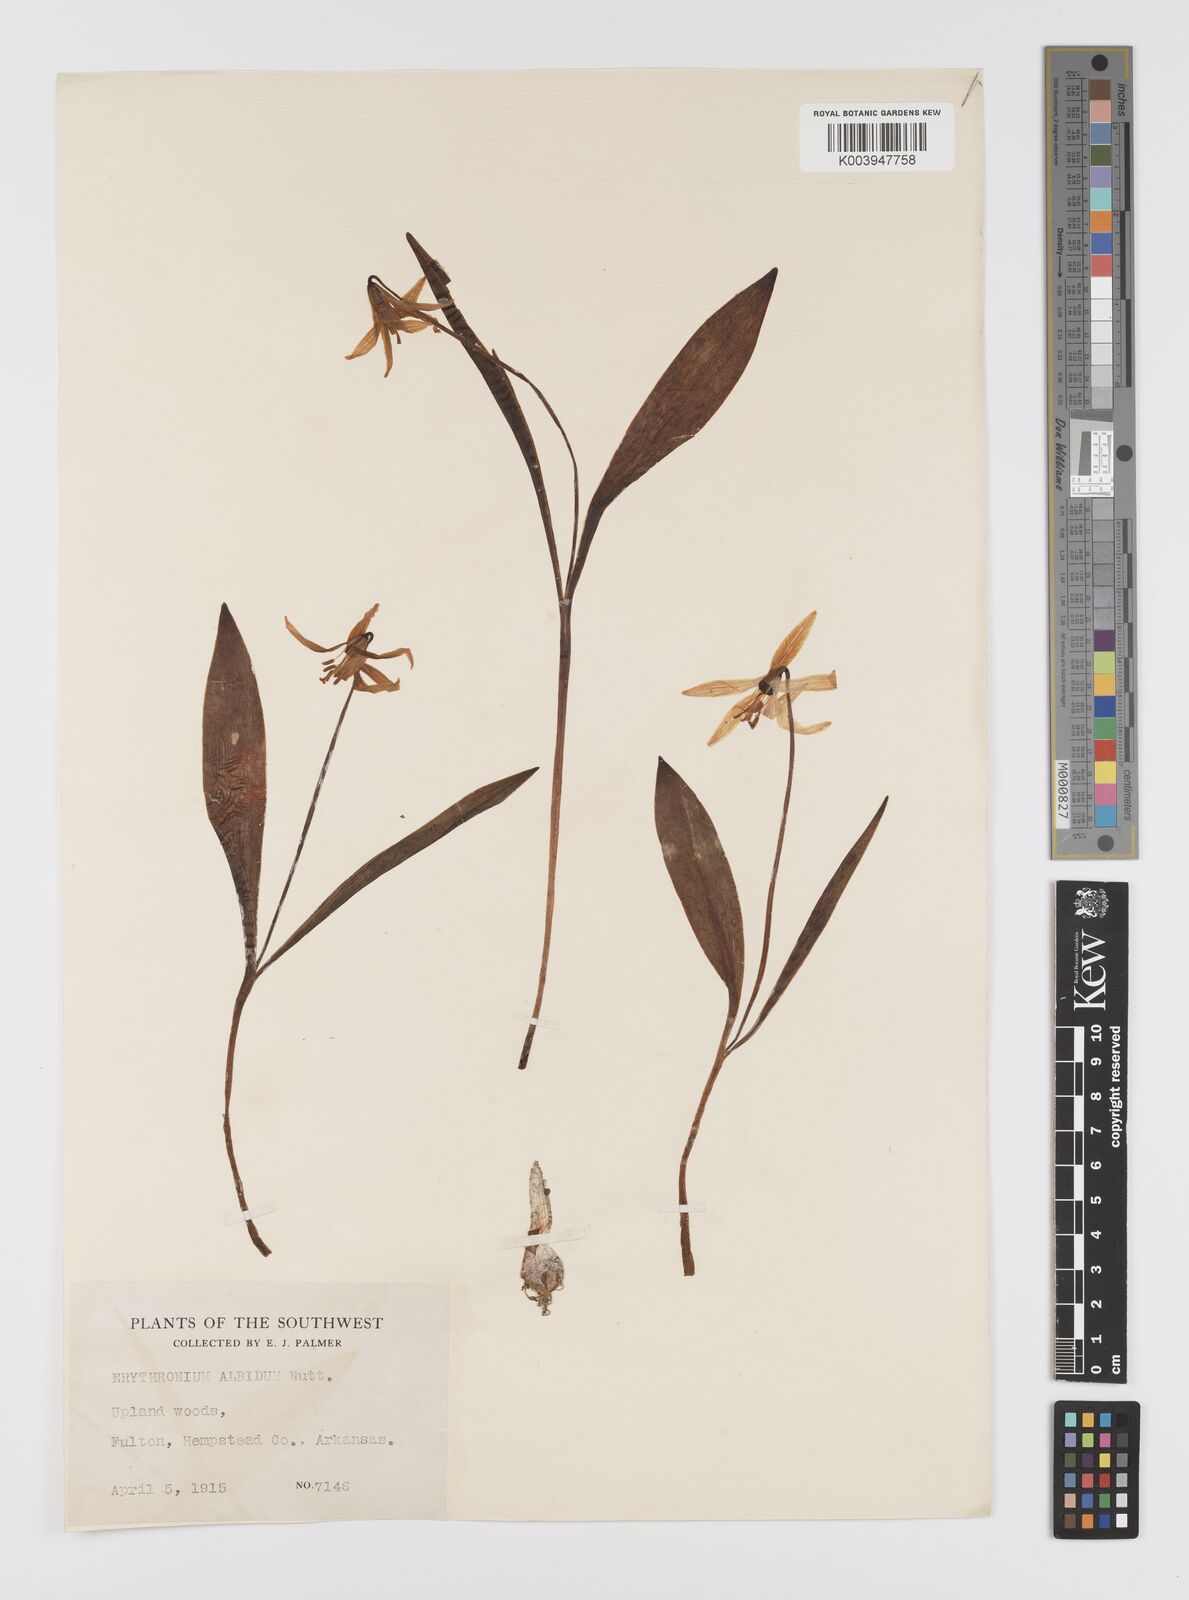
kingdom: Plantae
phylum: Tracheophyta
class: Liliopsida
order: Liliales
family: Liliaceae
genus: Erythronium
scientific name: Erythronium albidum
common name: White trout-lily
